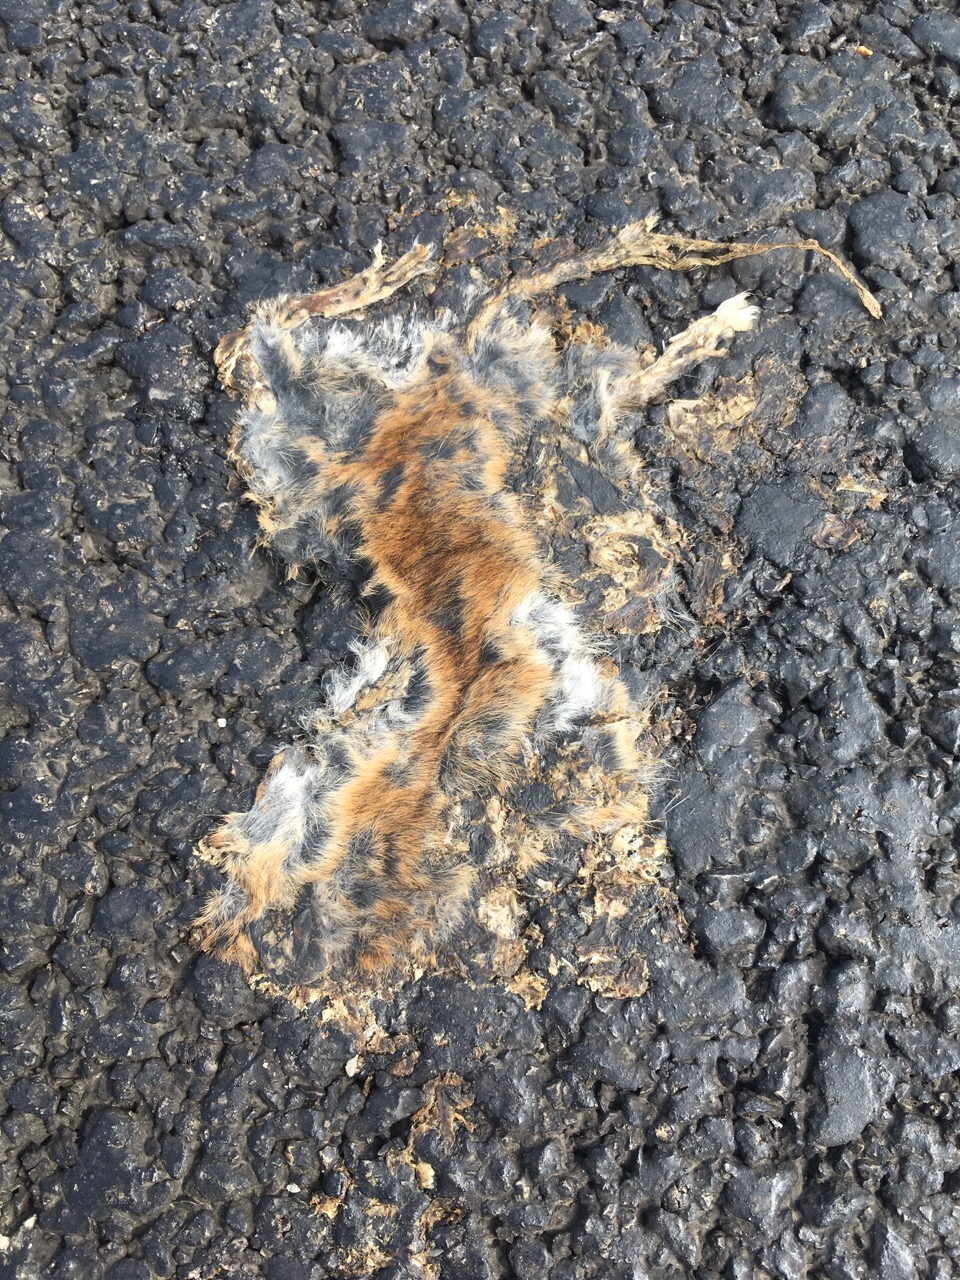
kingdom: Animalia
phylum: Chordata
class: Mammalia
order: Rodentia
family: Muridae
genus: Apodemus
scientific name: Apodemus
